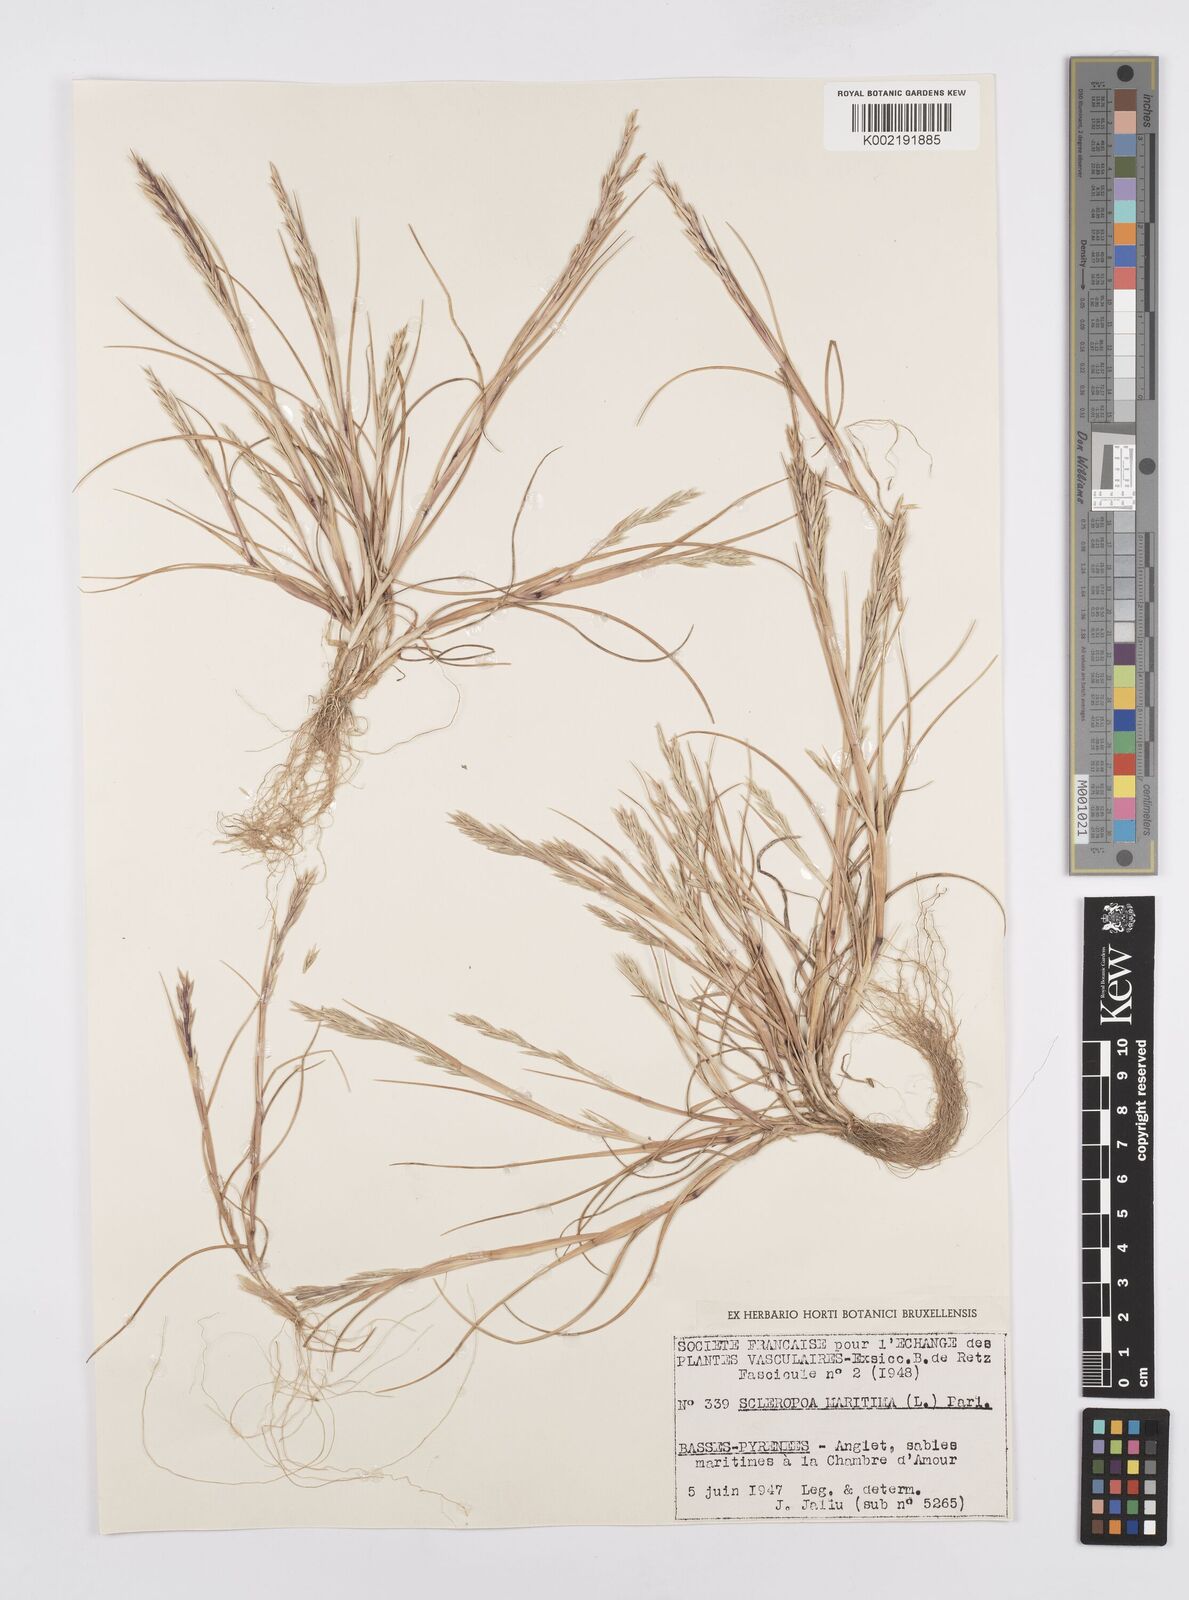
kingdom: Plantae
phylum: Tracheophyta
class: Liliopsida
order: Poales
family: Poaceae
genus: Cutandia
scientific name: Cutandia maritima
